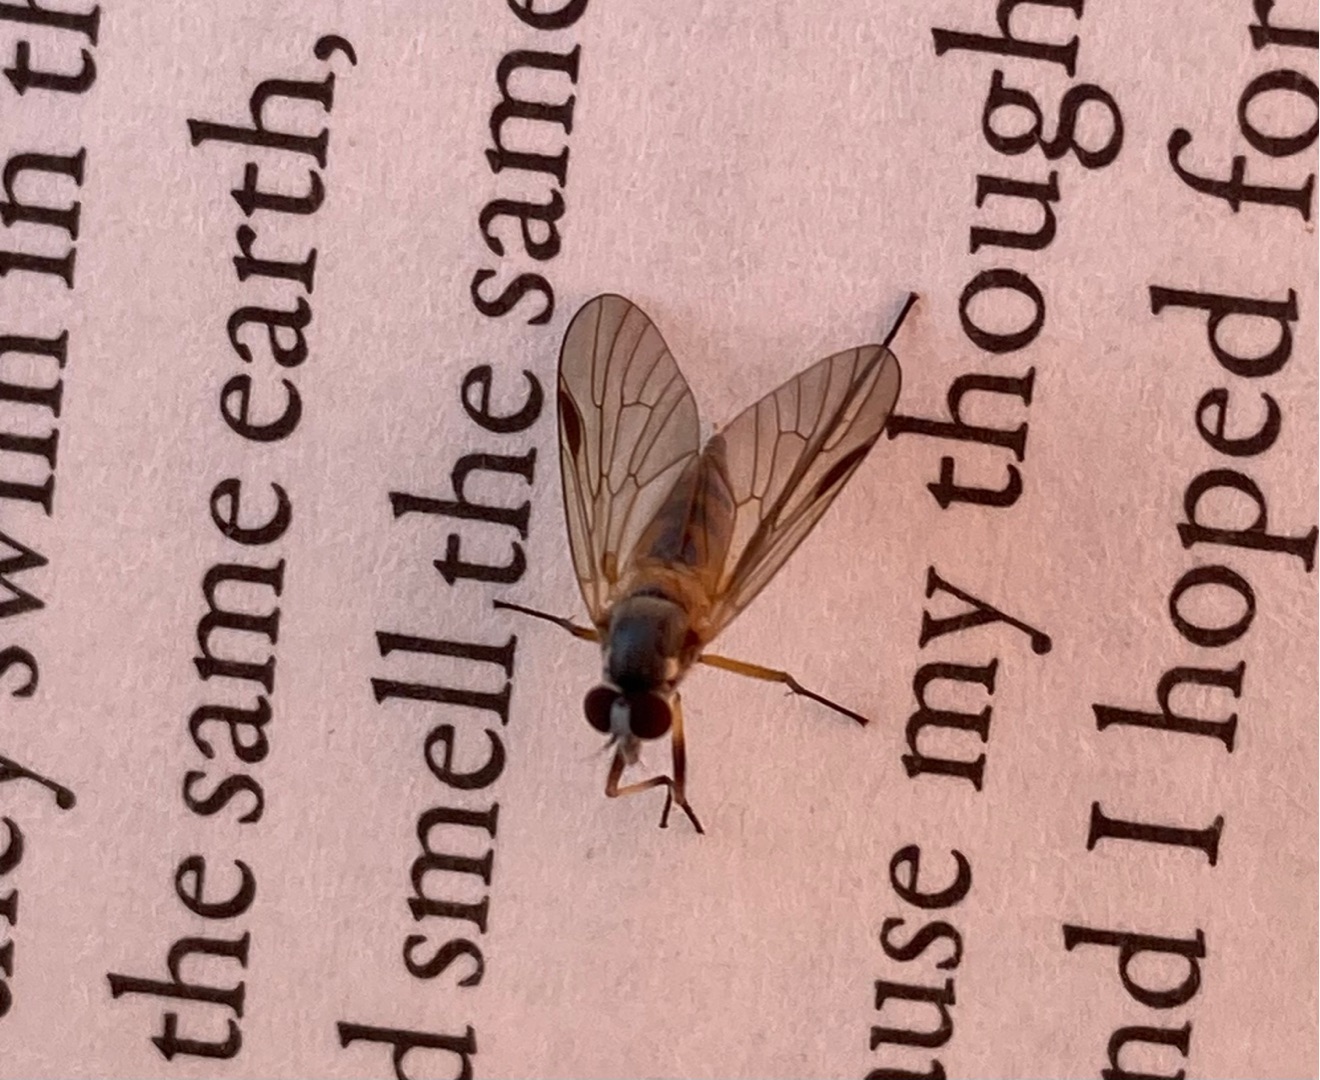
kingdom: Animalia
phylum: Arthropoda
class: Insecta
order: Diptera
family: Rhagionidae
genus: Rhagio
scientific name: Rhagio lineola
